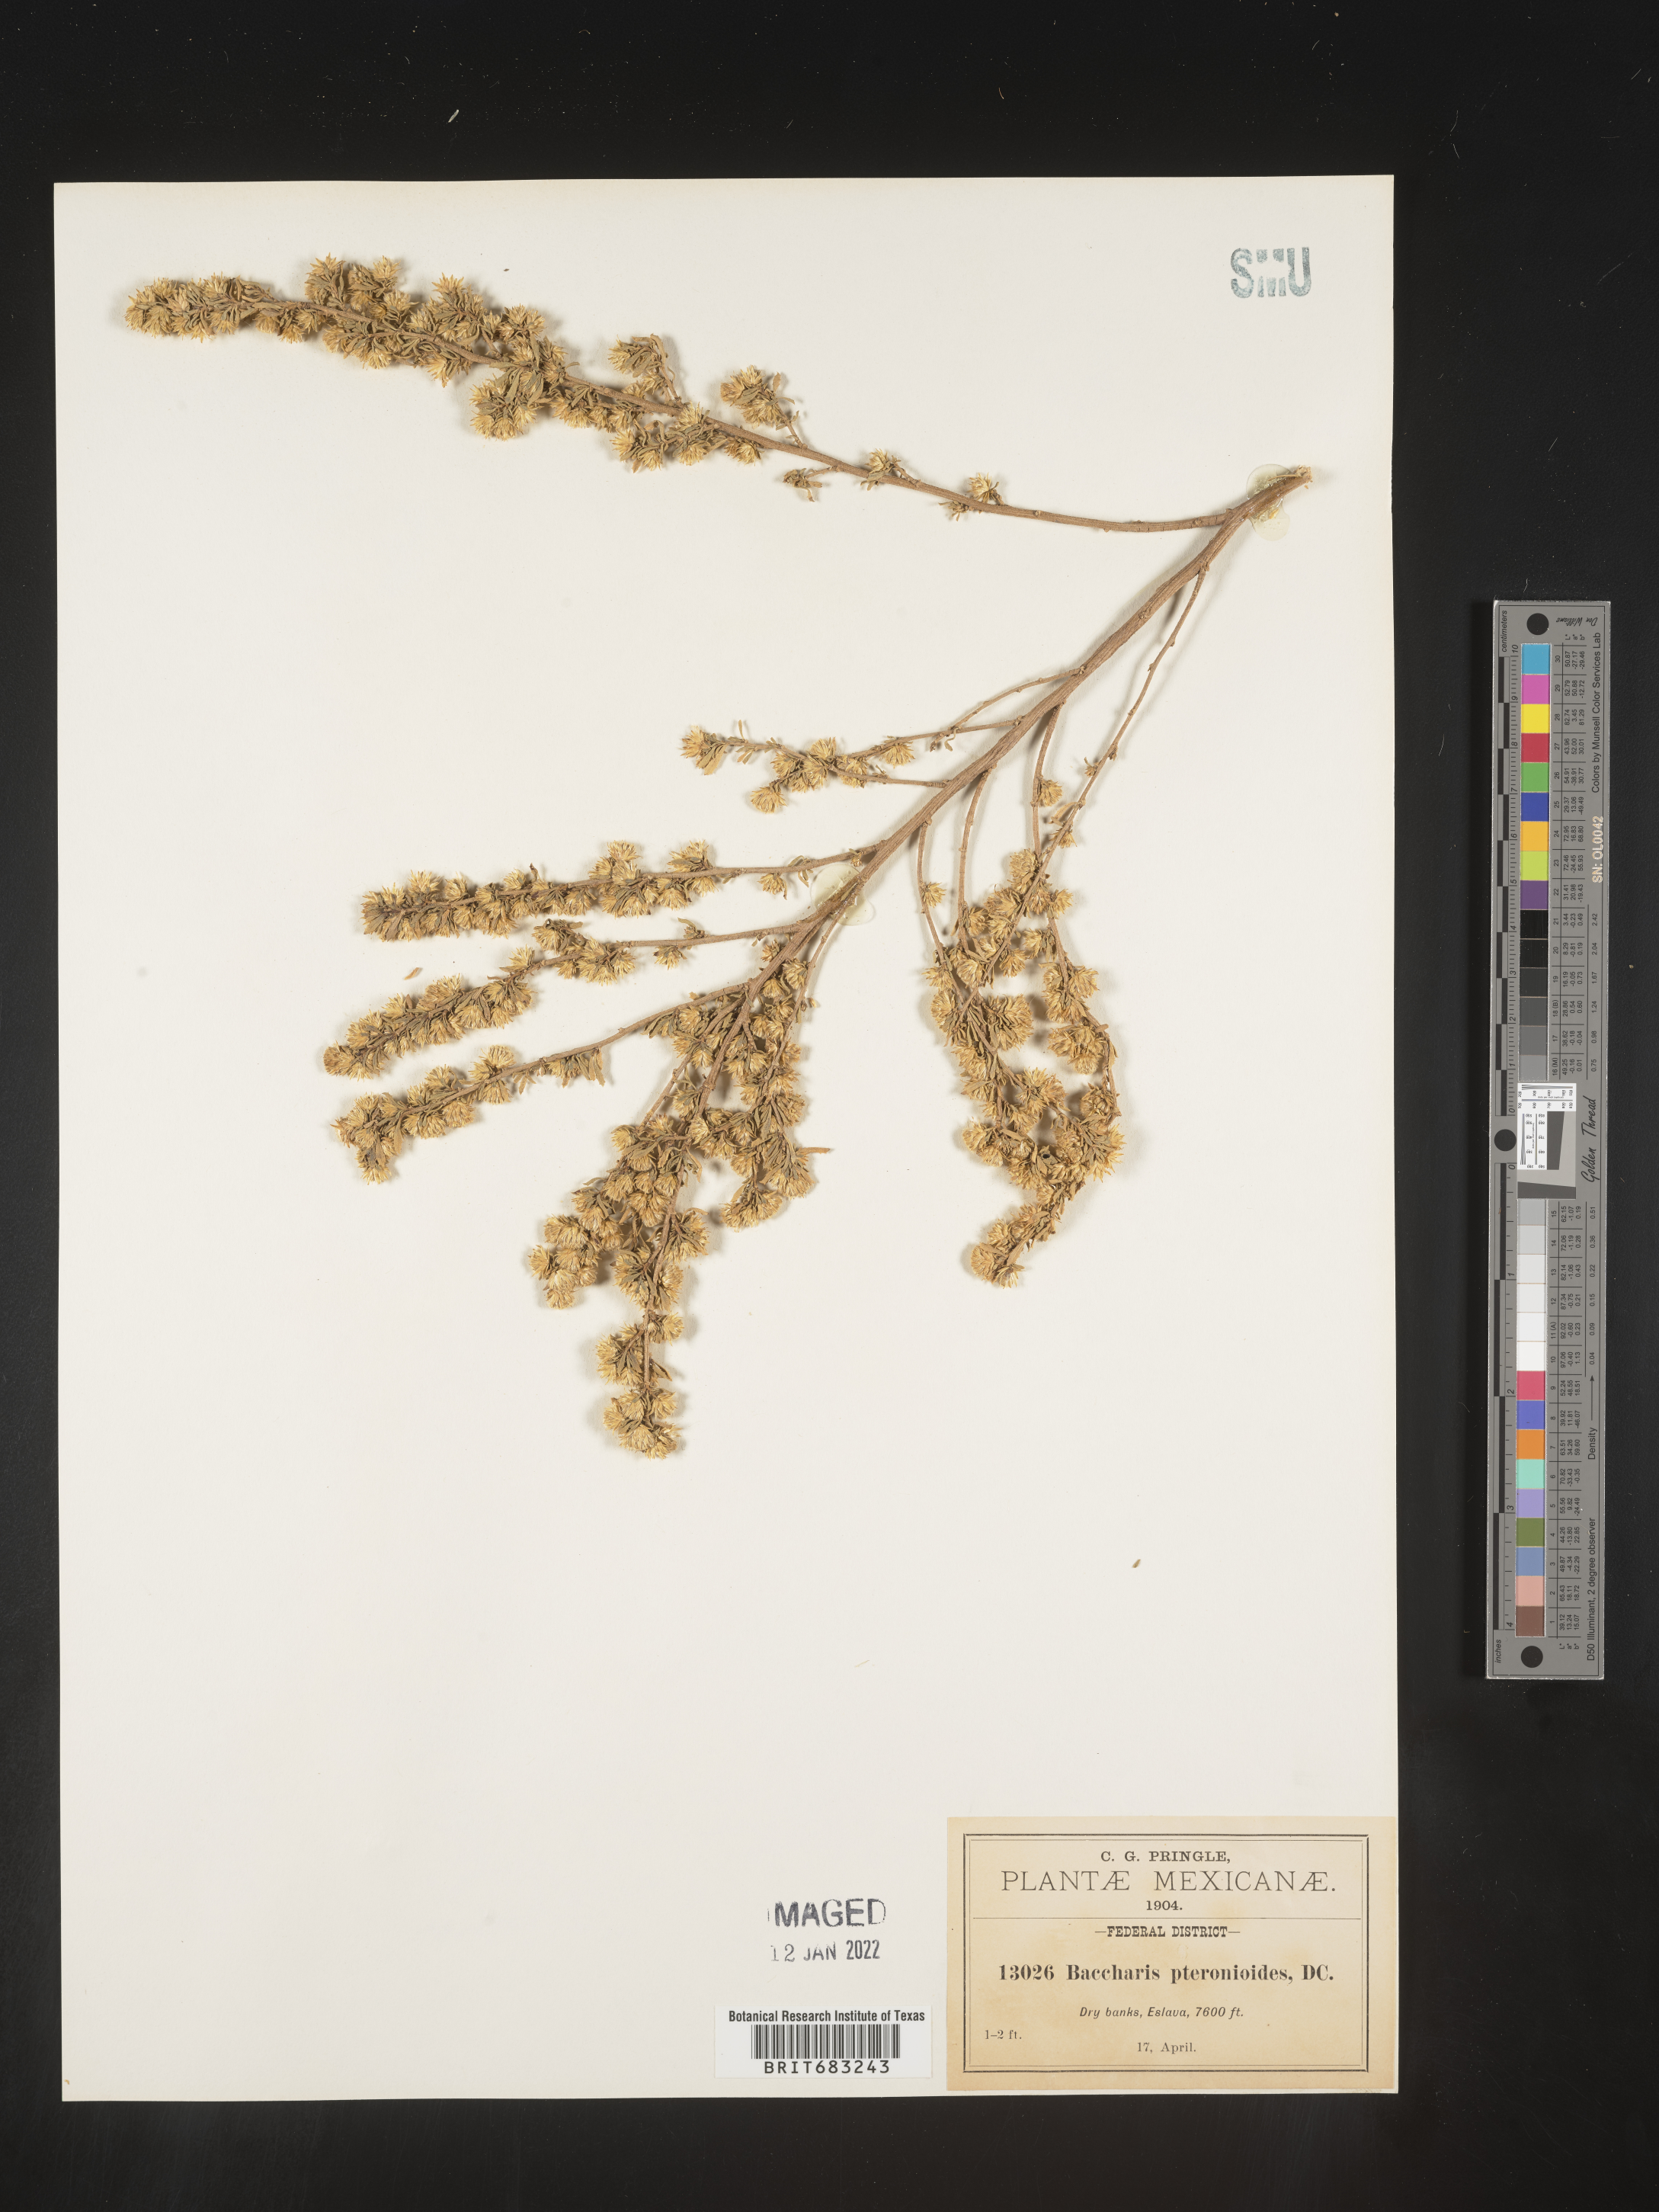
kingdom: Plantae
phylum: Tracheophyta
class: Magnoliopsida
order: Asterales
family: Asteraceae
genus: Baccharis
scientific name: Baccharis pteronioides
